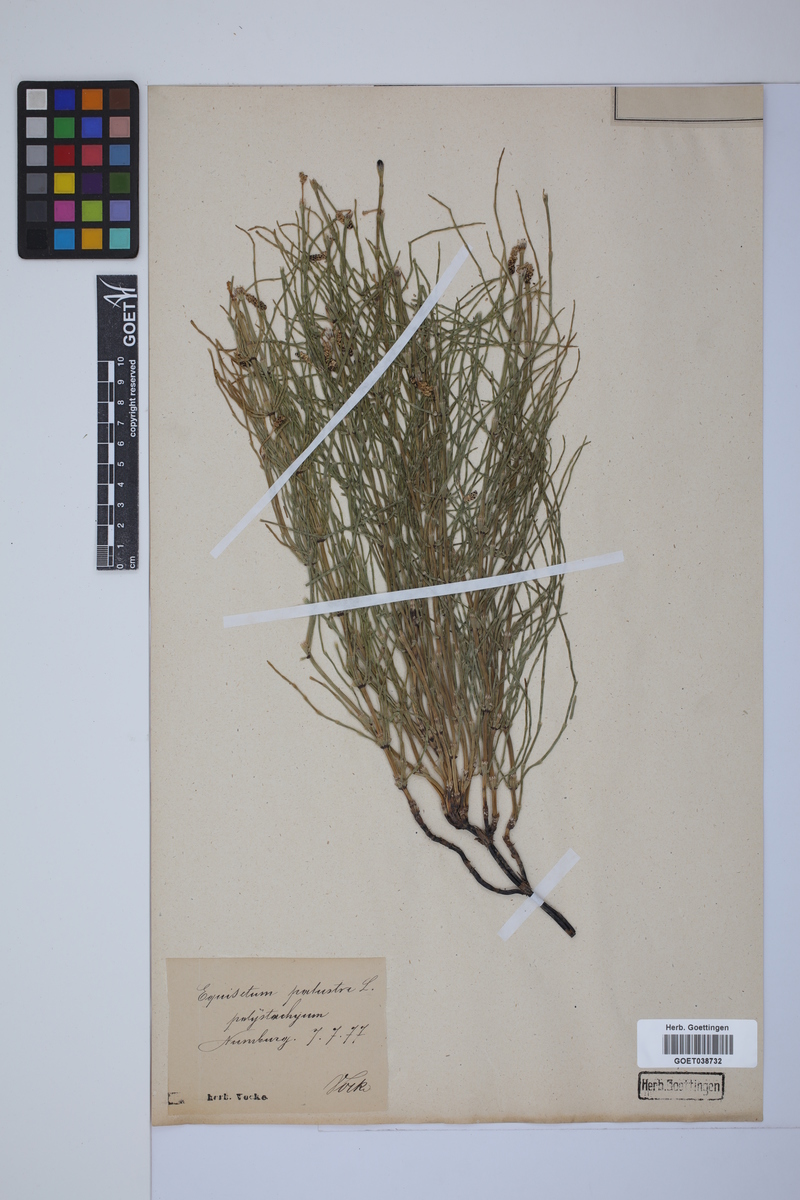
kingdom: Plantae
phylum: Tracheophyta
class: Polypodiopsida
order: Equisetales
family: Equisetaceae
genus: Equisetum
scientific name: Equisetum palustre
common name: Marsh horsetail
